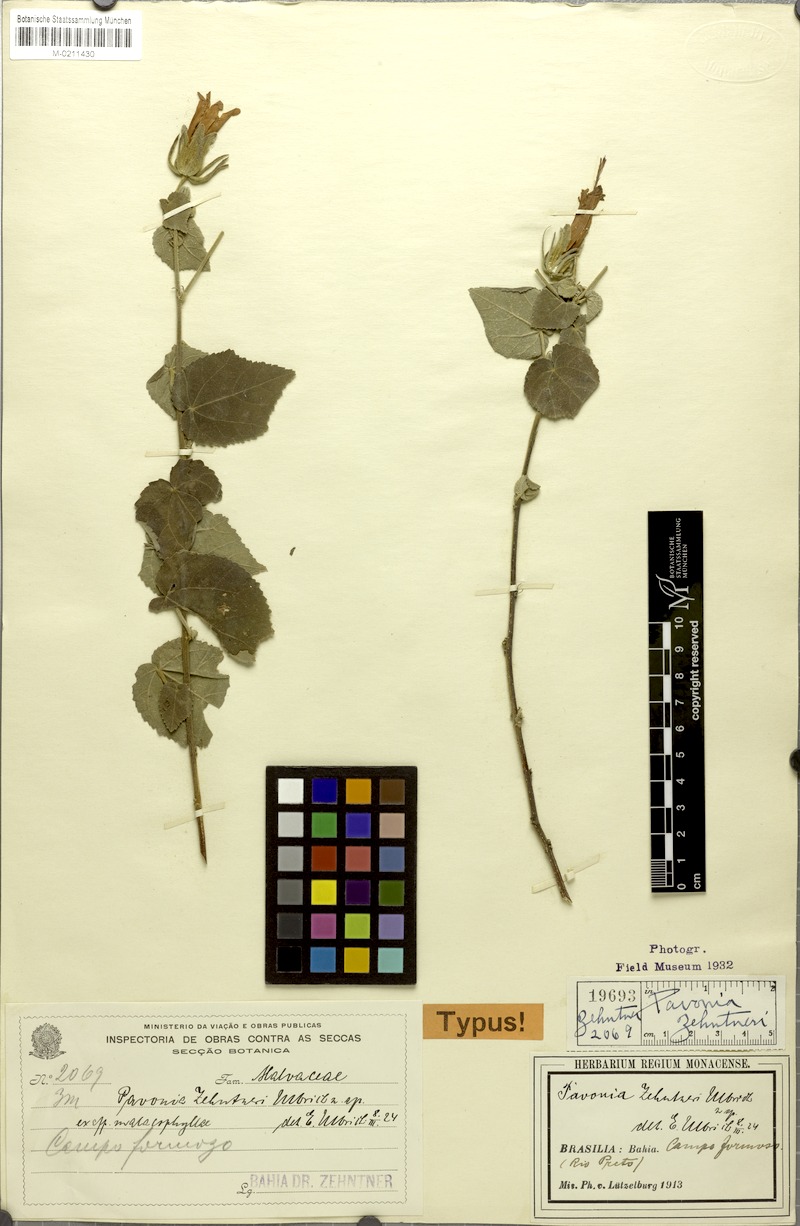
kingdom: Plantae
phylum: Tracheophyta
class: Magnoliopsida
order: Malvales
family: Malvaceae
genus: Pavonia
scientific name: Pavonia zehntneri
